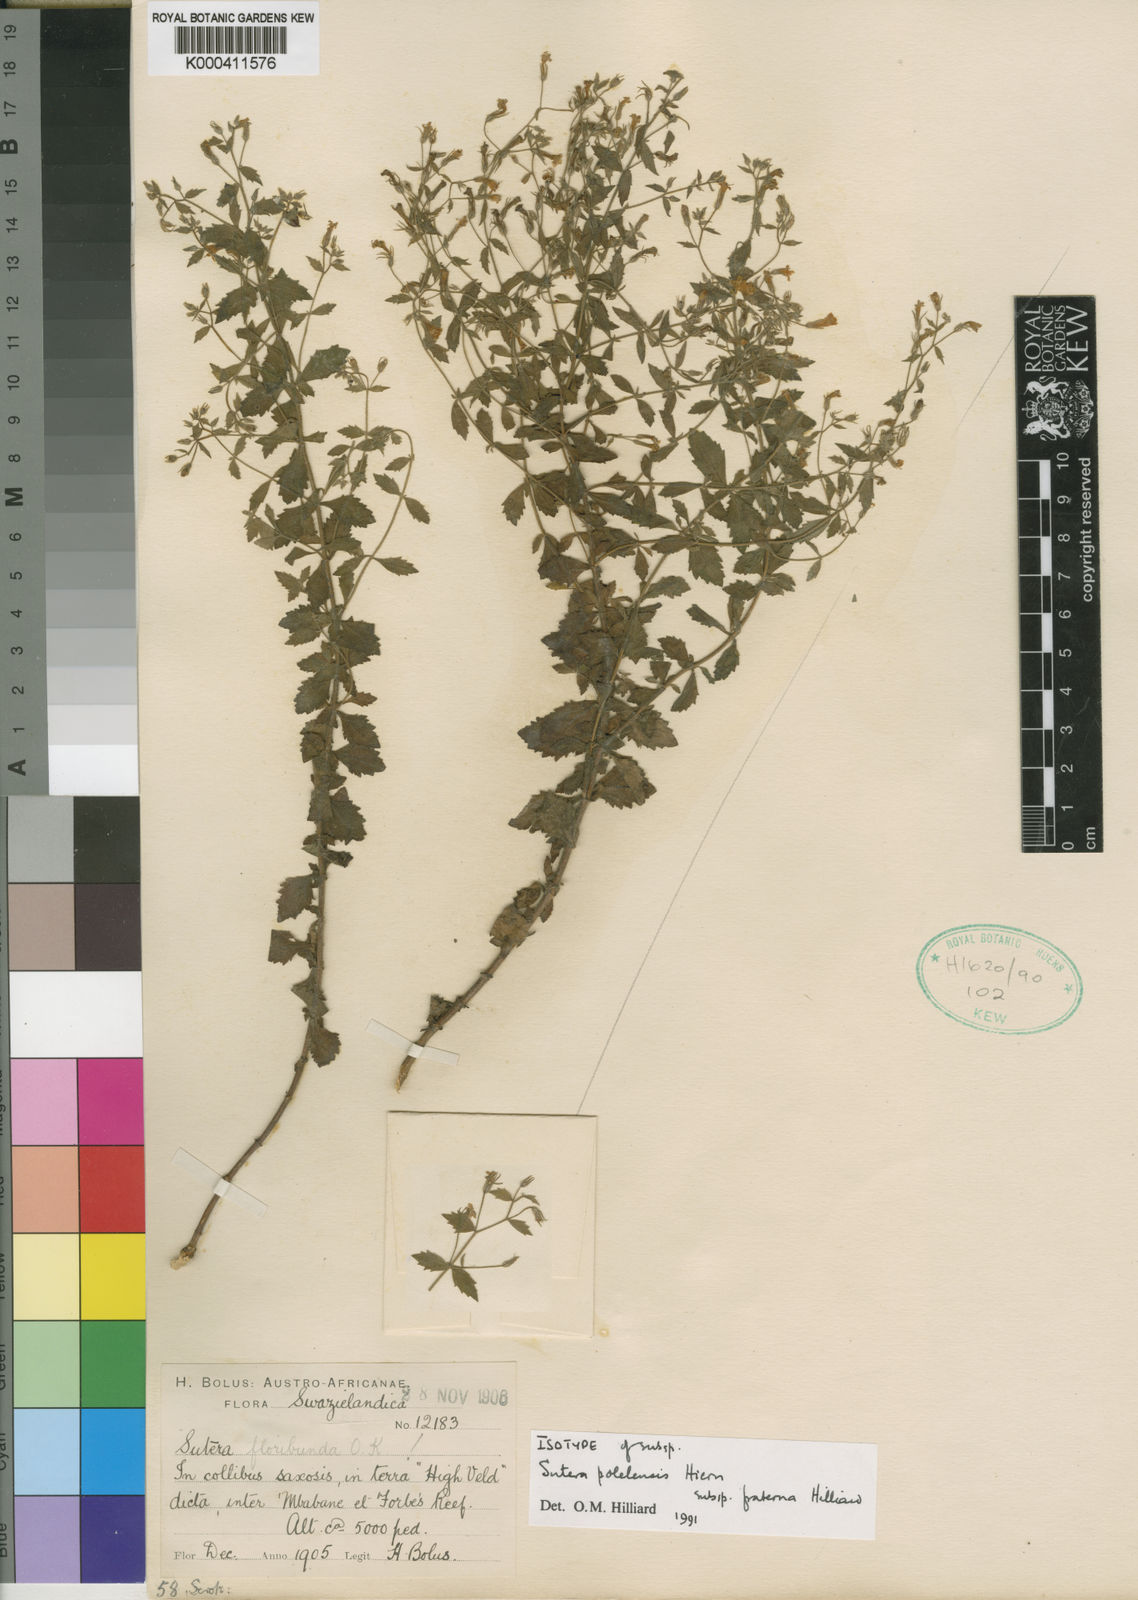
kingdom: Plantae
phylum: Tracheophyta
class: Magnoliopsida
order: Lamiales
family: Scrophulariaceae
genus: Chaenostoma
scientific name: Chaenostoma polelense
